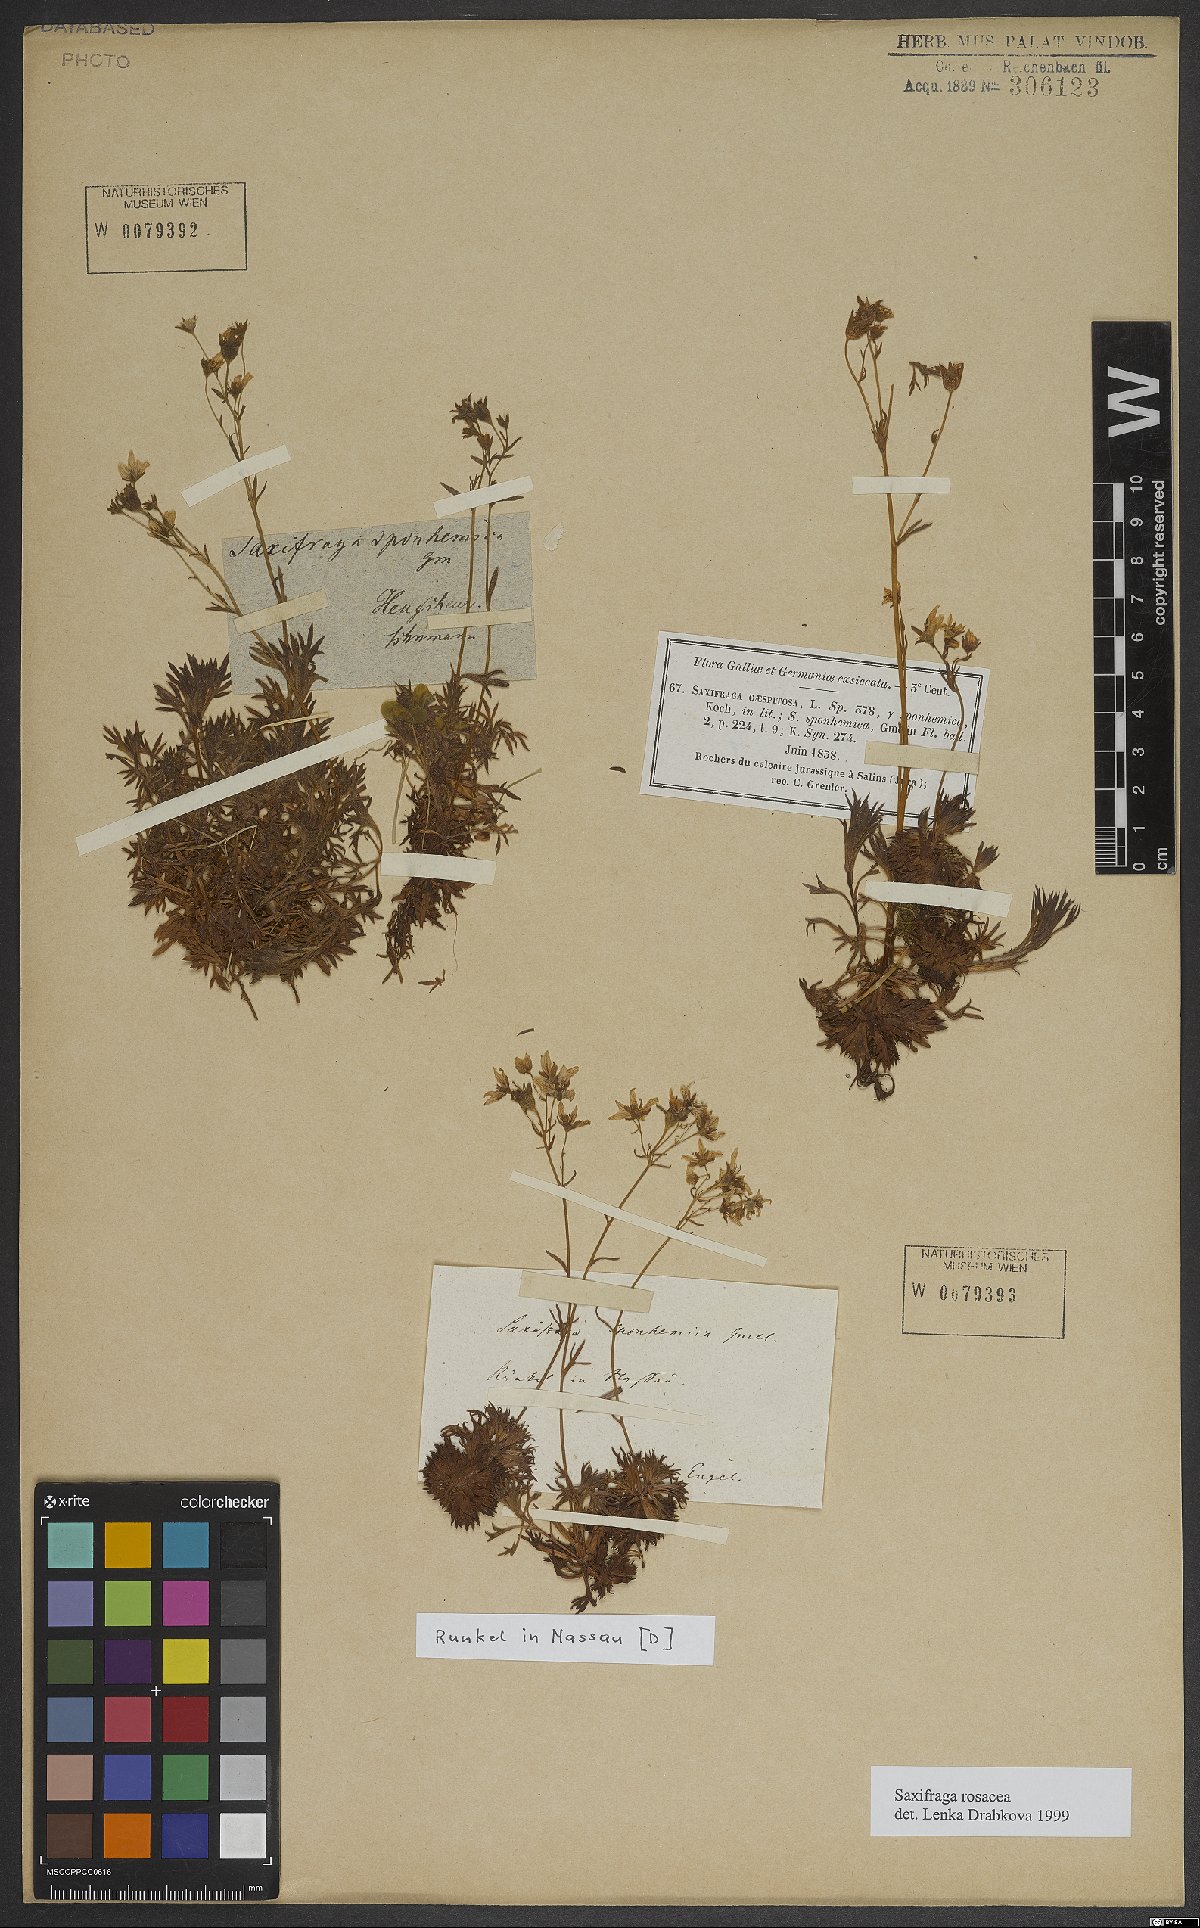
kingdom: Plantae
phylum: Tracheophyta
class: Magnoliopsida
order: Saxifragales
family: Saxifragaceae
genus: Saxifraga
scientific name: Saxifraga rosacea
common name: Irish saxifrage
